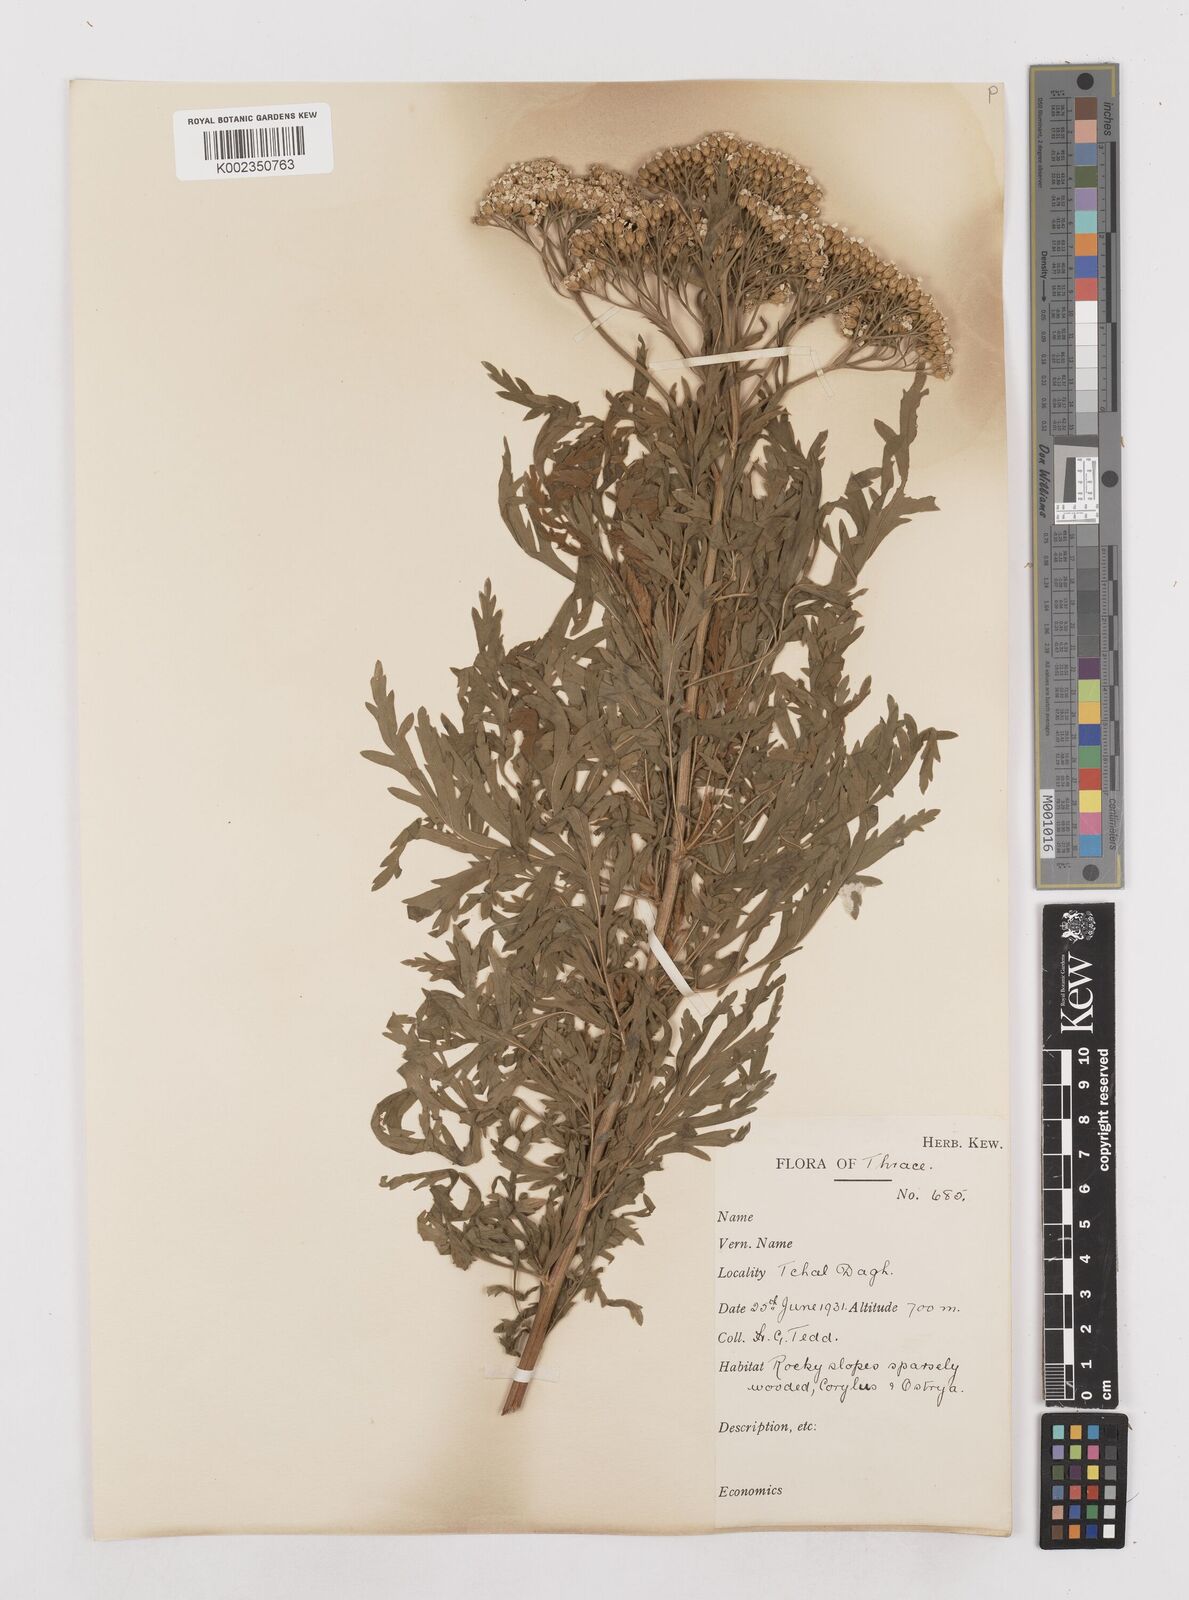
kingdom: Plantae
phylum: Tracheophyta
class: Magnoliopsida
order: Asterales
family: Asteraceae
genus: Achillea
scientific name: Achillea grandifolia
